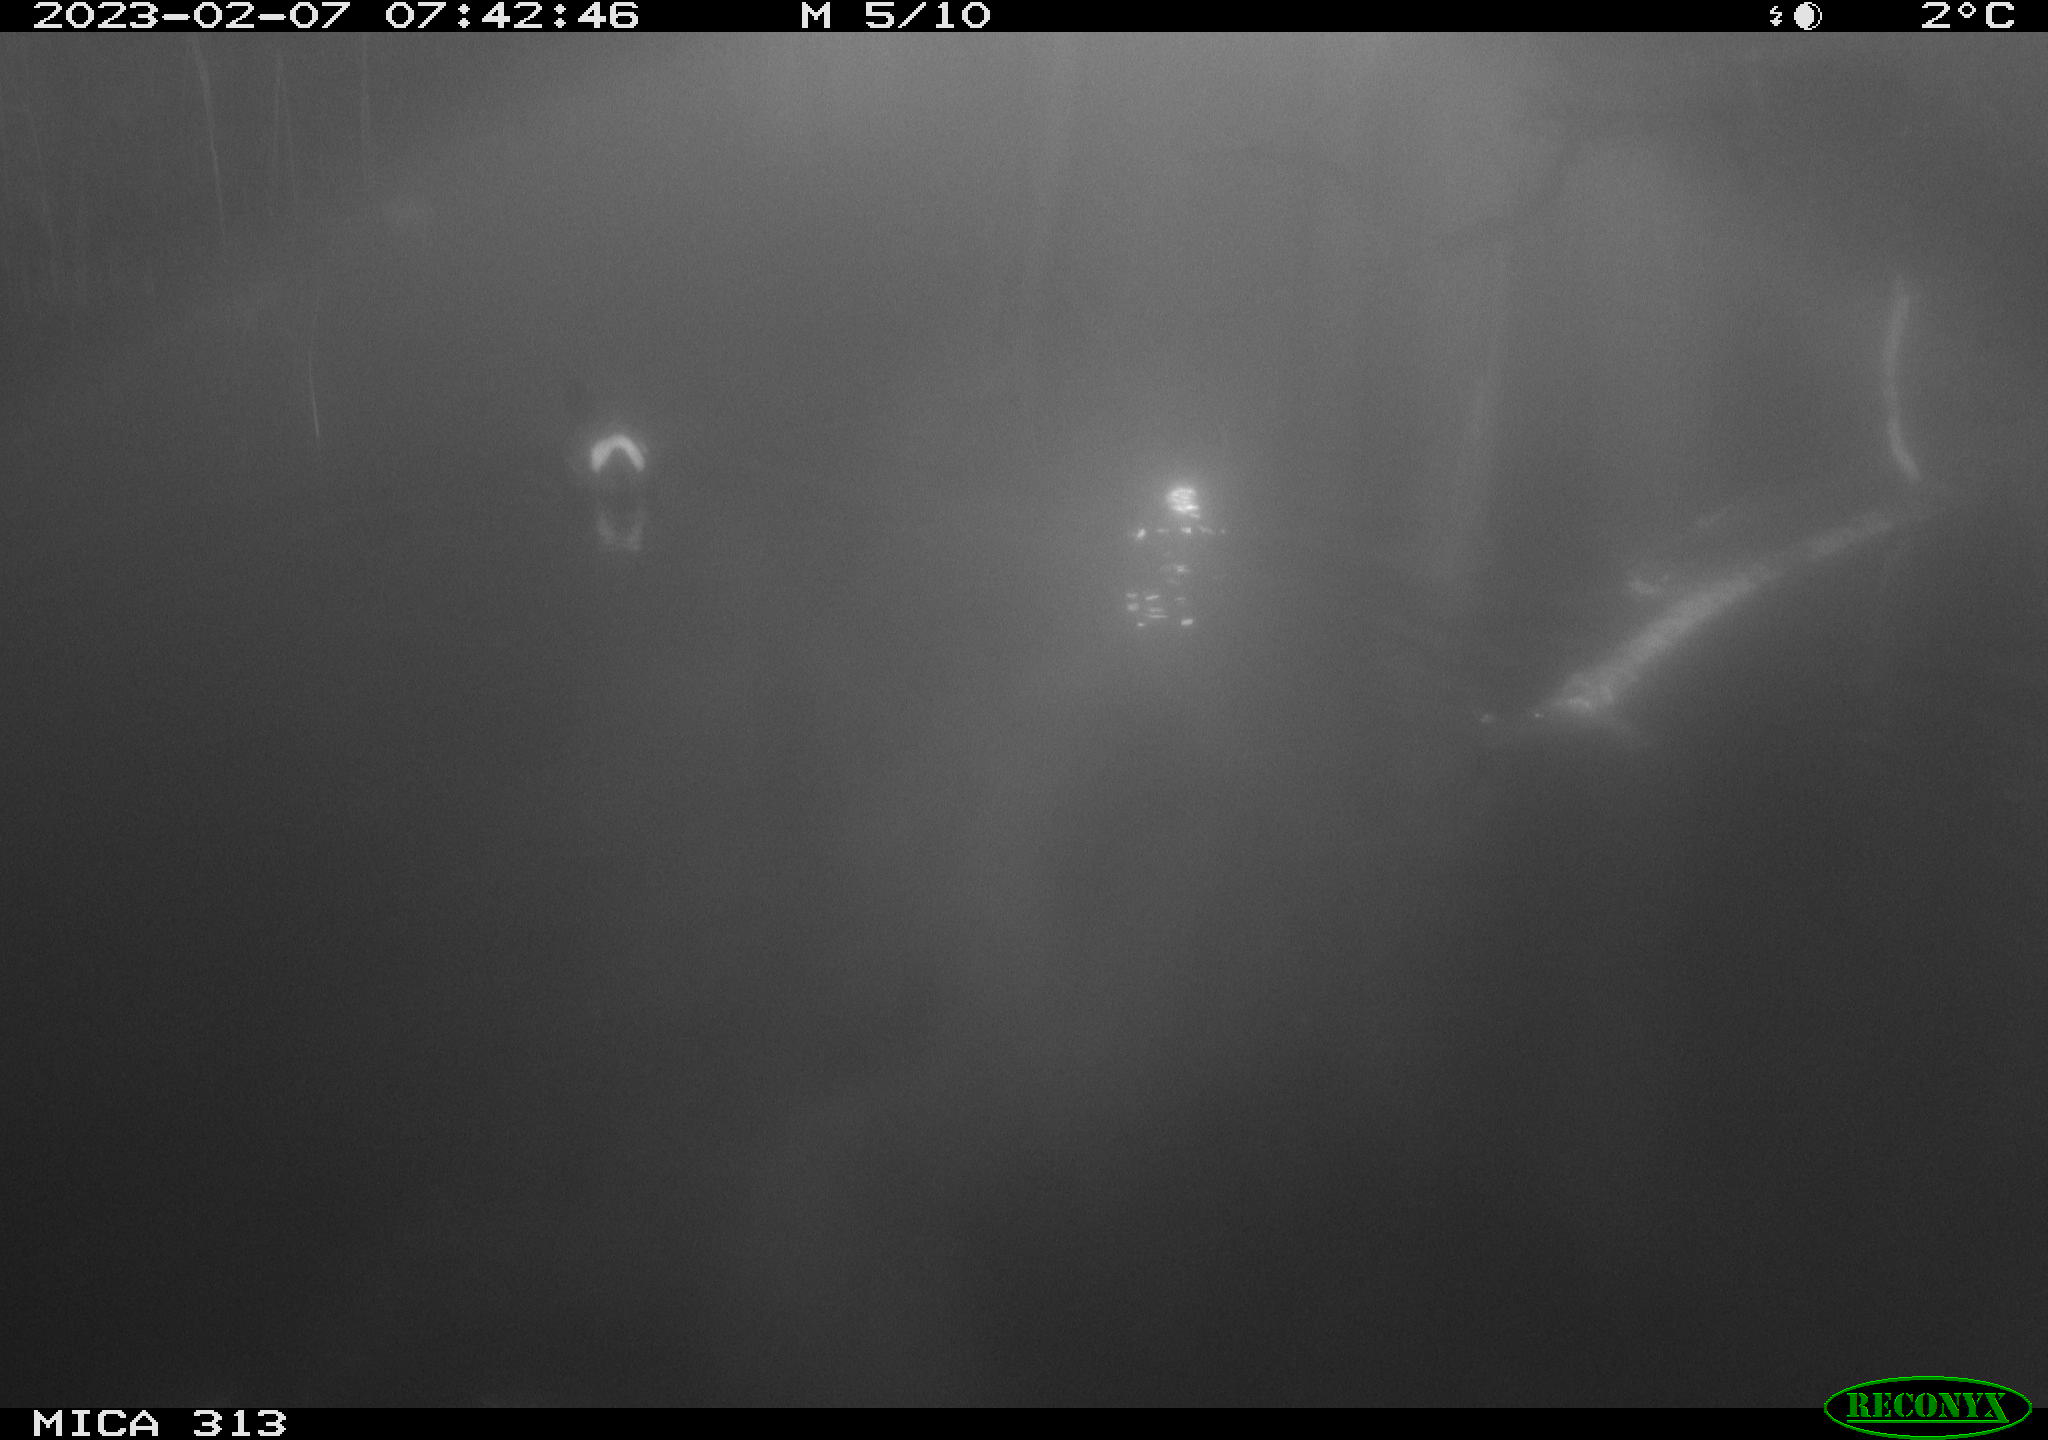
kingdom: Animalia
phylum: Chordata
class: Aves
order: Gruiformes
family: Rallidae
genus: Gallinula
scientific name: Gallinula chloropus
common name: Common moorhen
